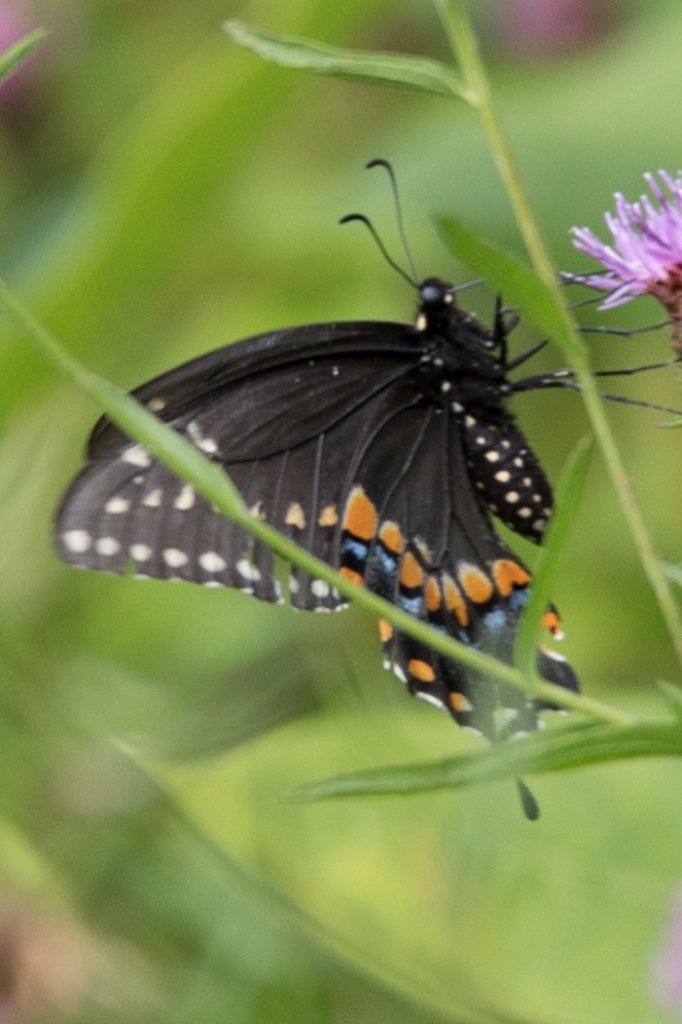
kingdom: Animalia
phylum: Arthropoda
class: Insecta
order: Lepidoptera
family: Papilionidae
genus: Papilio
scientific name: Papilio polyxenes
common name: Black Swallowtail
